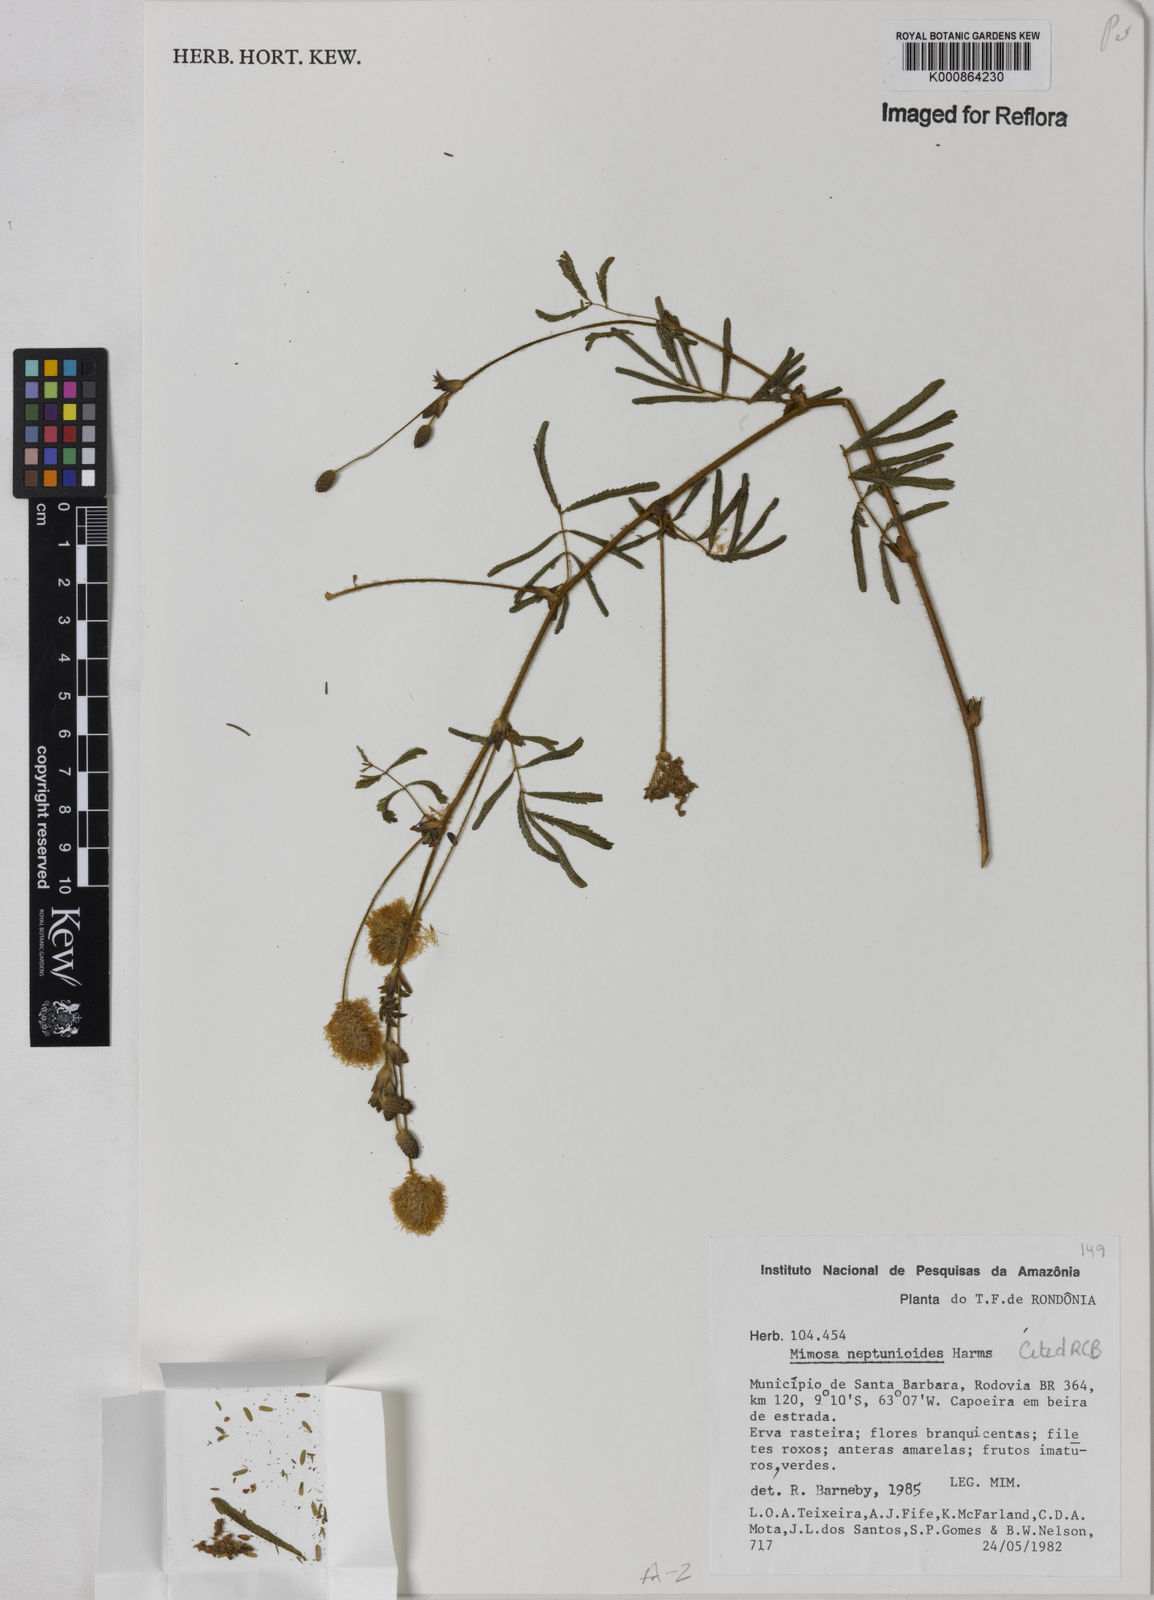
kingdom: Plantae
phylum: Tracheophyta
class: Magnoliopsida
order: Fabales
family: Fabaceae
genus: Mimosa
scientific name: Mimosa neptunioides
